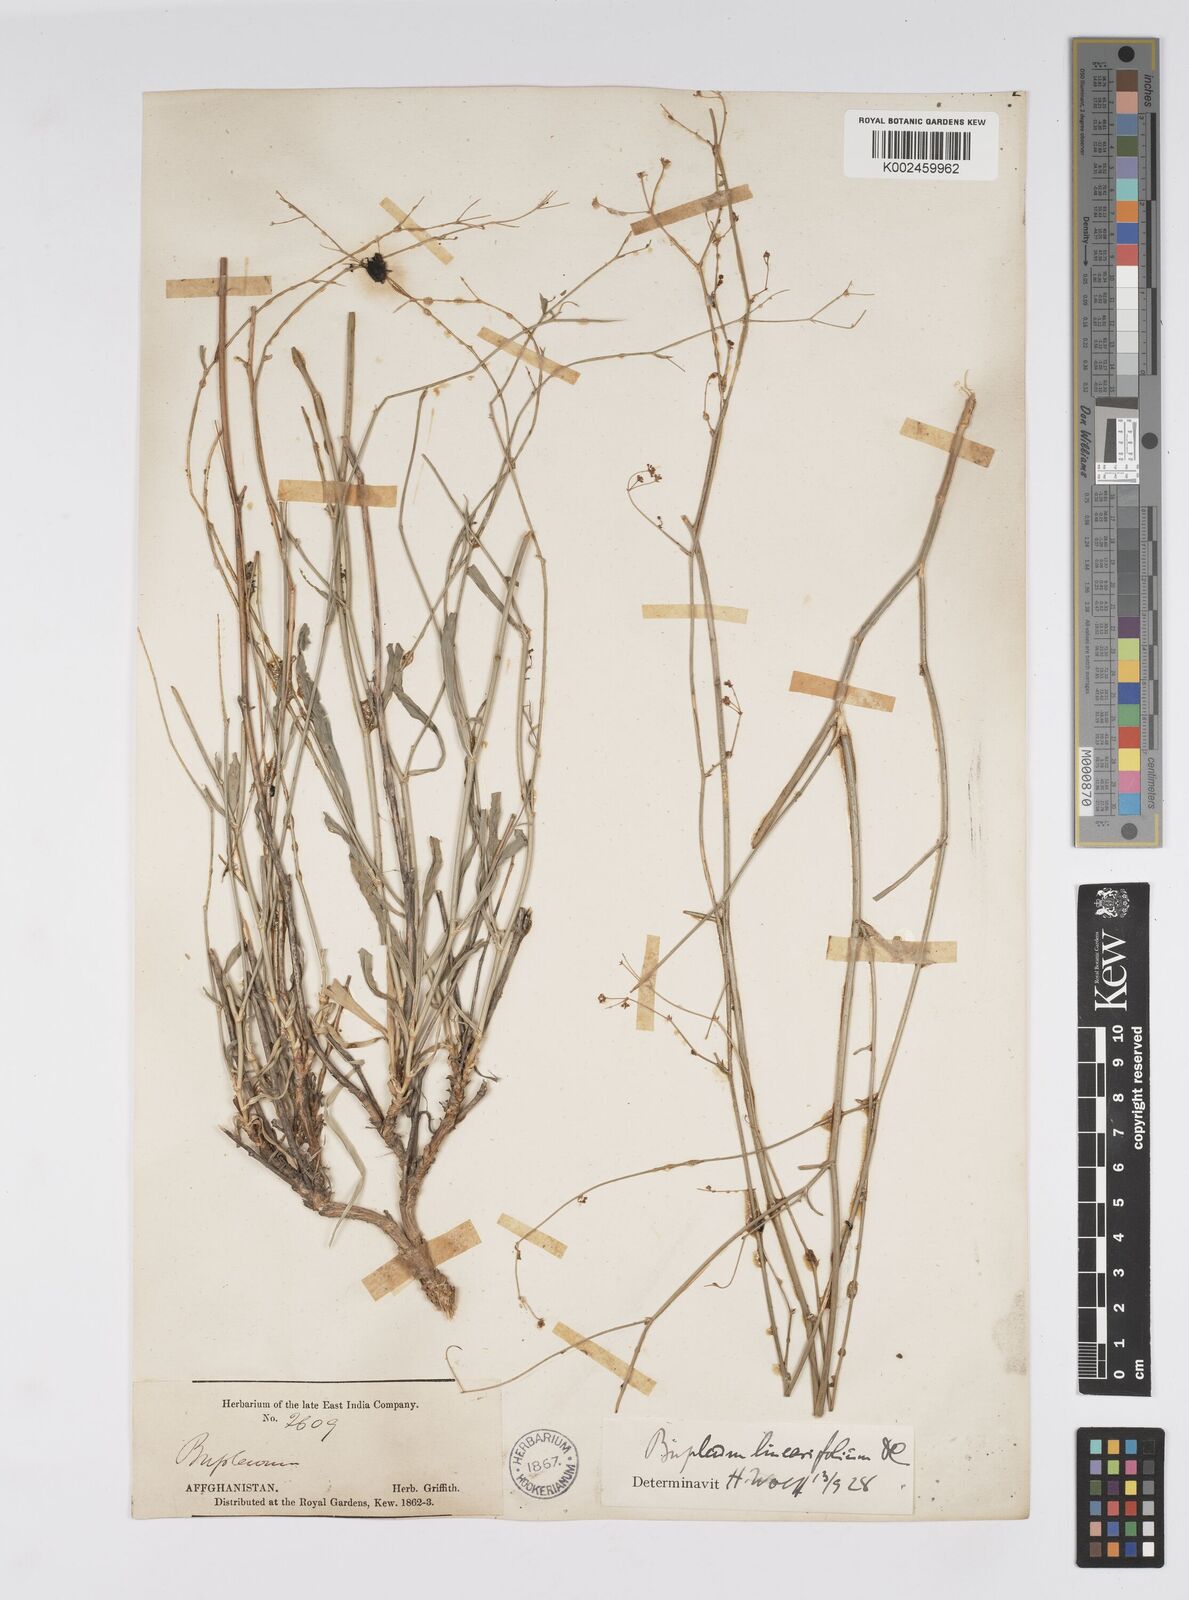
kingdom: Plantae
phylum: Tracheophyta
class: Magnoliopsida
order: Apiales
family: Apiaceae
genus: Bupleurum
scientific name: Bupleurum falcatum
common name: Sickle-leaved hare's-ear
